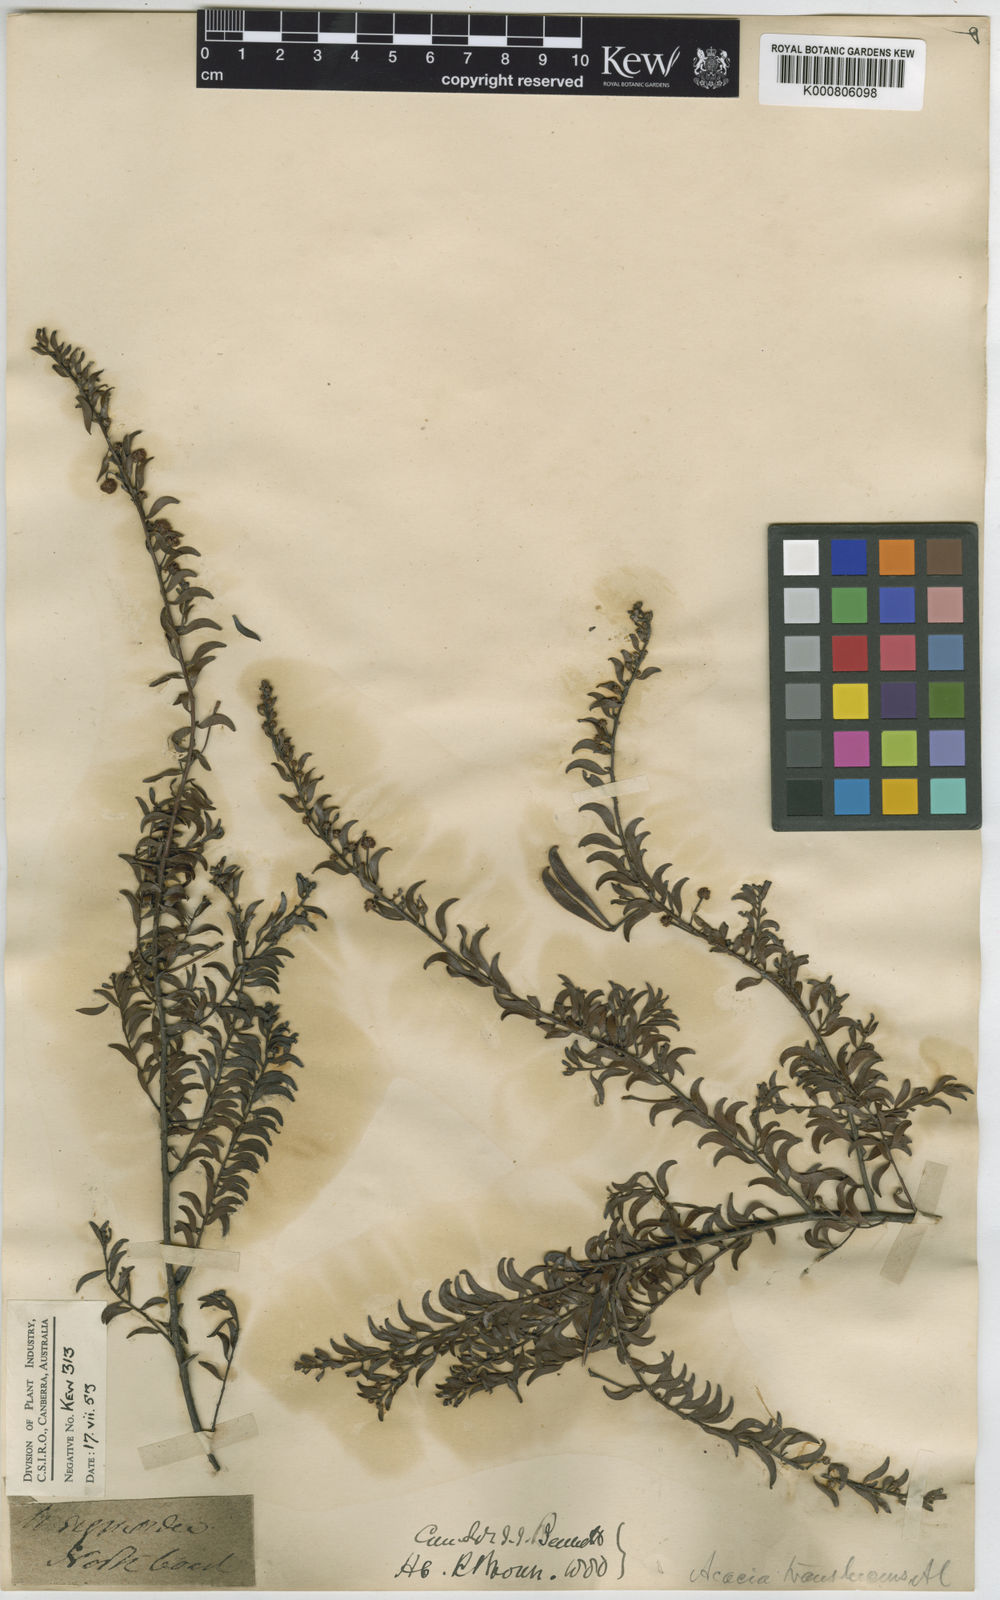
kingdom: Plantae
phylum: Tracheophyta
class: Magnoliopsida
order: Fabales
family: Fabaceae
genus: Acacia
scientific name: Acacia
